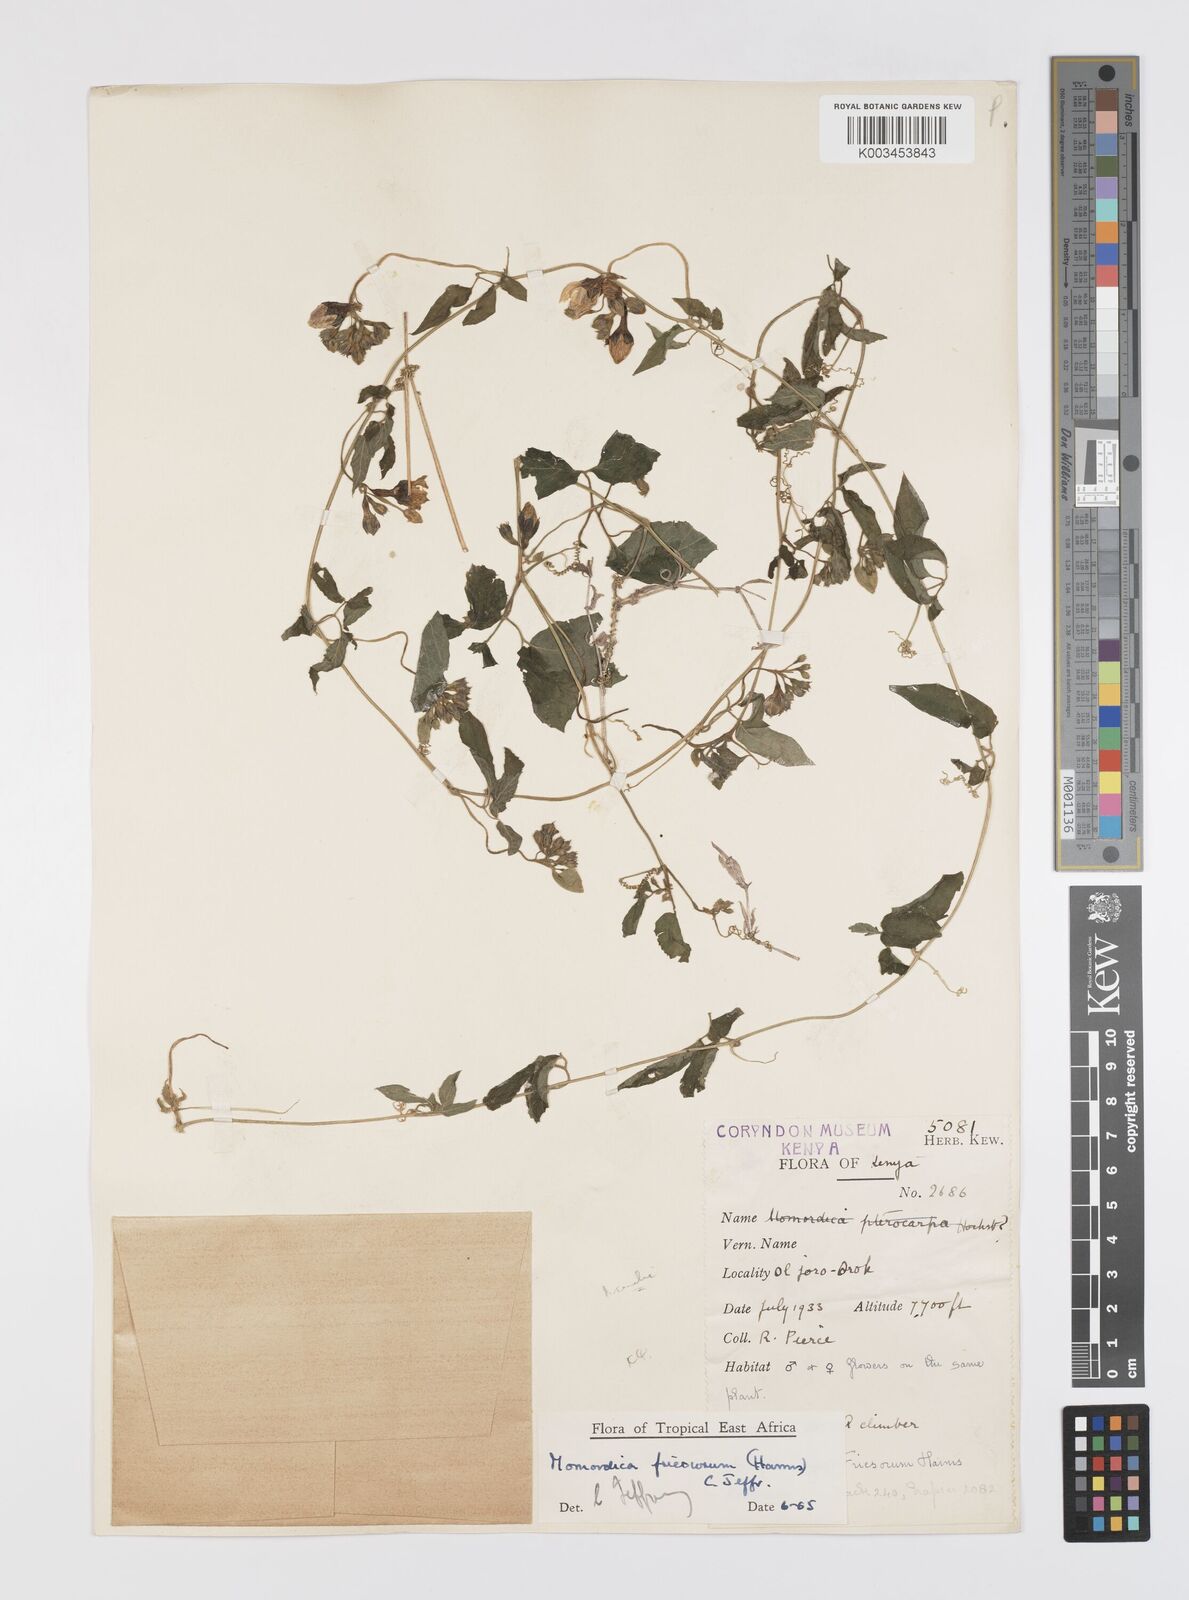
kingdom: Plantae
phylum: Tracheophyta
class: Magnoliopsida
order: Cucurbitales
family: Cucurbitaceae
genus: Momordica
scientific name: Momordica friesiorum
